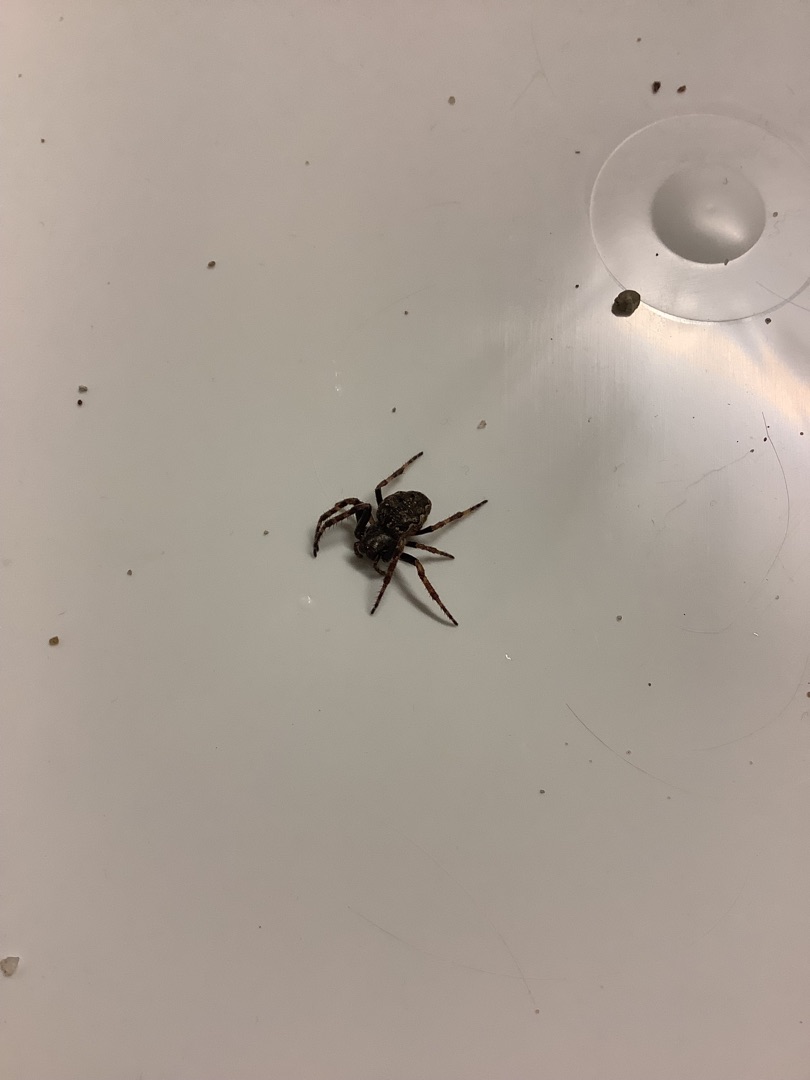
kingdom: Animalia
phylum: Arthropoda
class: Arachnida
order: Araneae
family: Araneidae
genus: Nuctenea
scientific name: Nuctenea umbratica
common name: Flad hjulspinder
